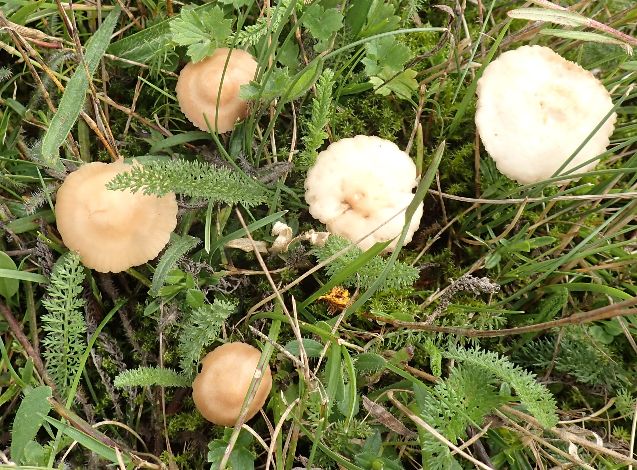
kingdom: Fungi
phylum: Basidiomycota
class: Agaricomycetes
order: Agaricales
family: Marasmiaceae
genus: Marasmius
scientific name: Marasmius oreades
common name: elledans-bruskhat
